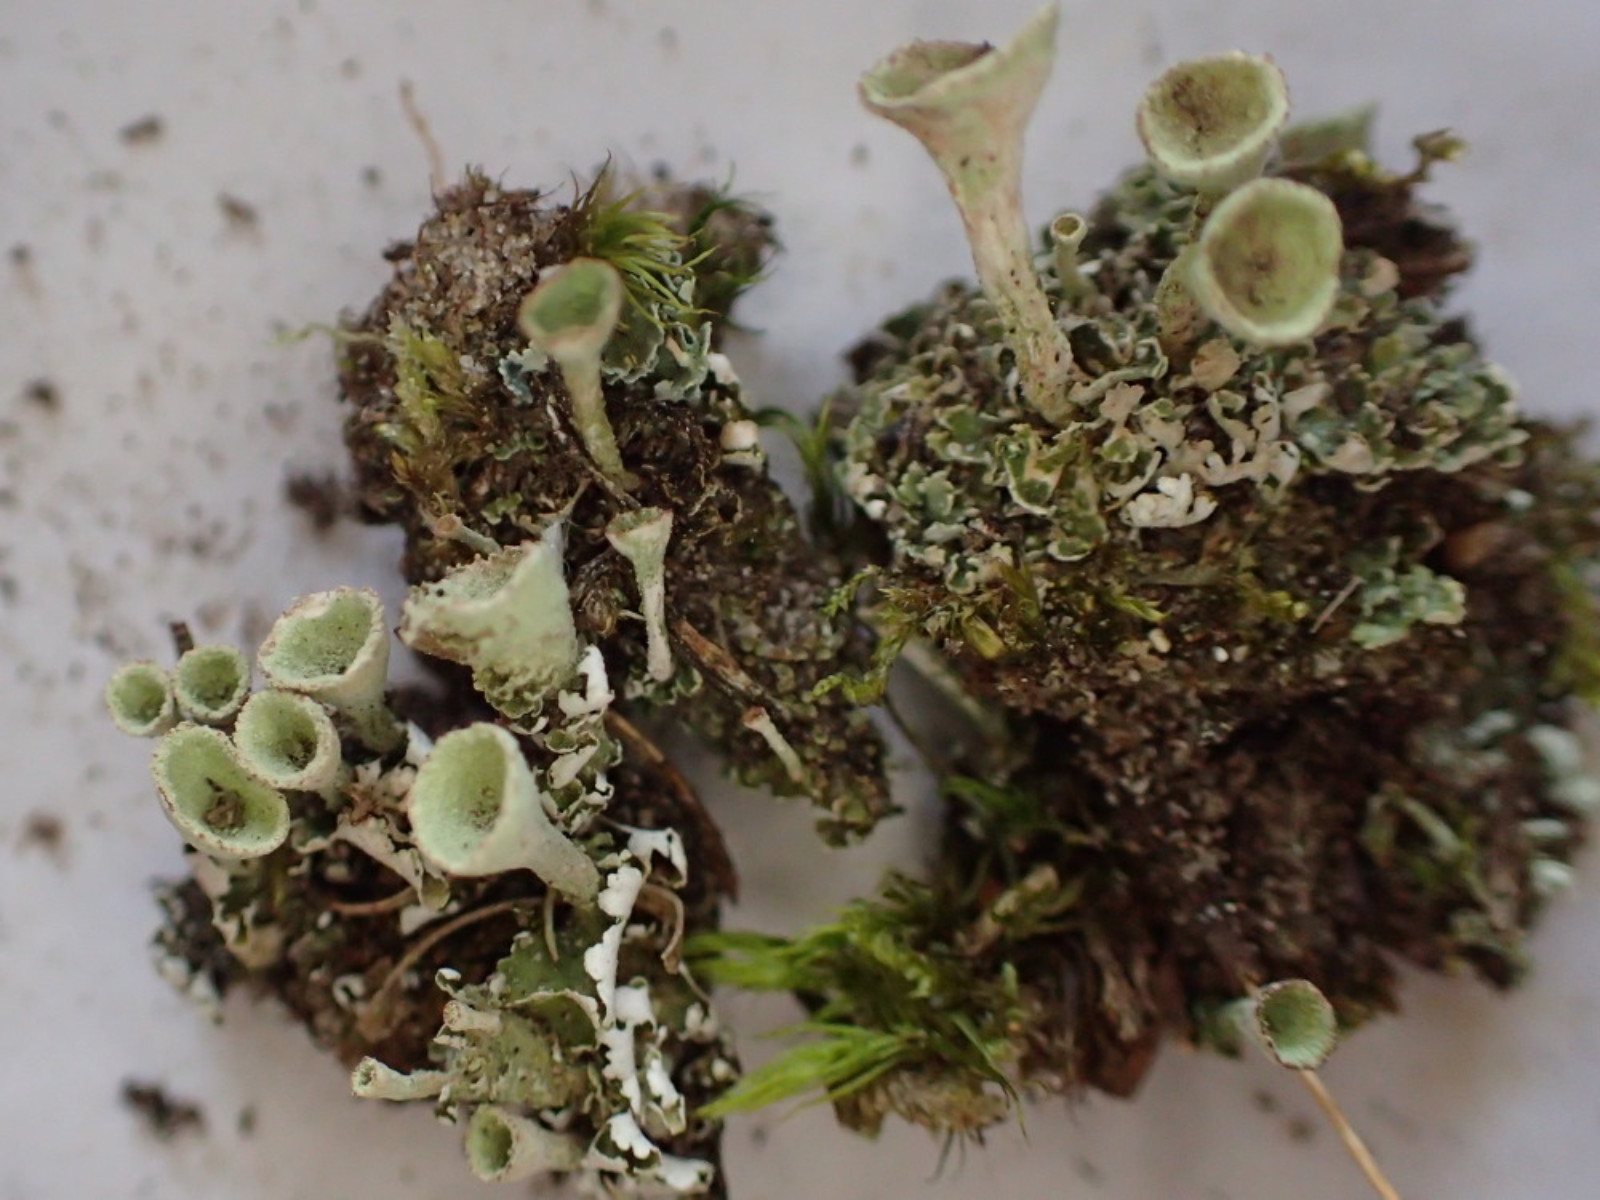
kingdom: Fungi
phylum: Ascomycota
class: Lecanoromycetes
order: Lecanorales
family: Cladoniaceae
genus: Cladonia
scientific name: Cladonia humilis
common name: lav bægerlav
